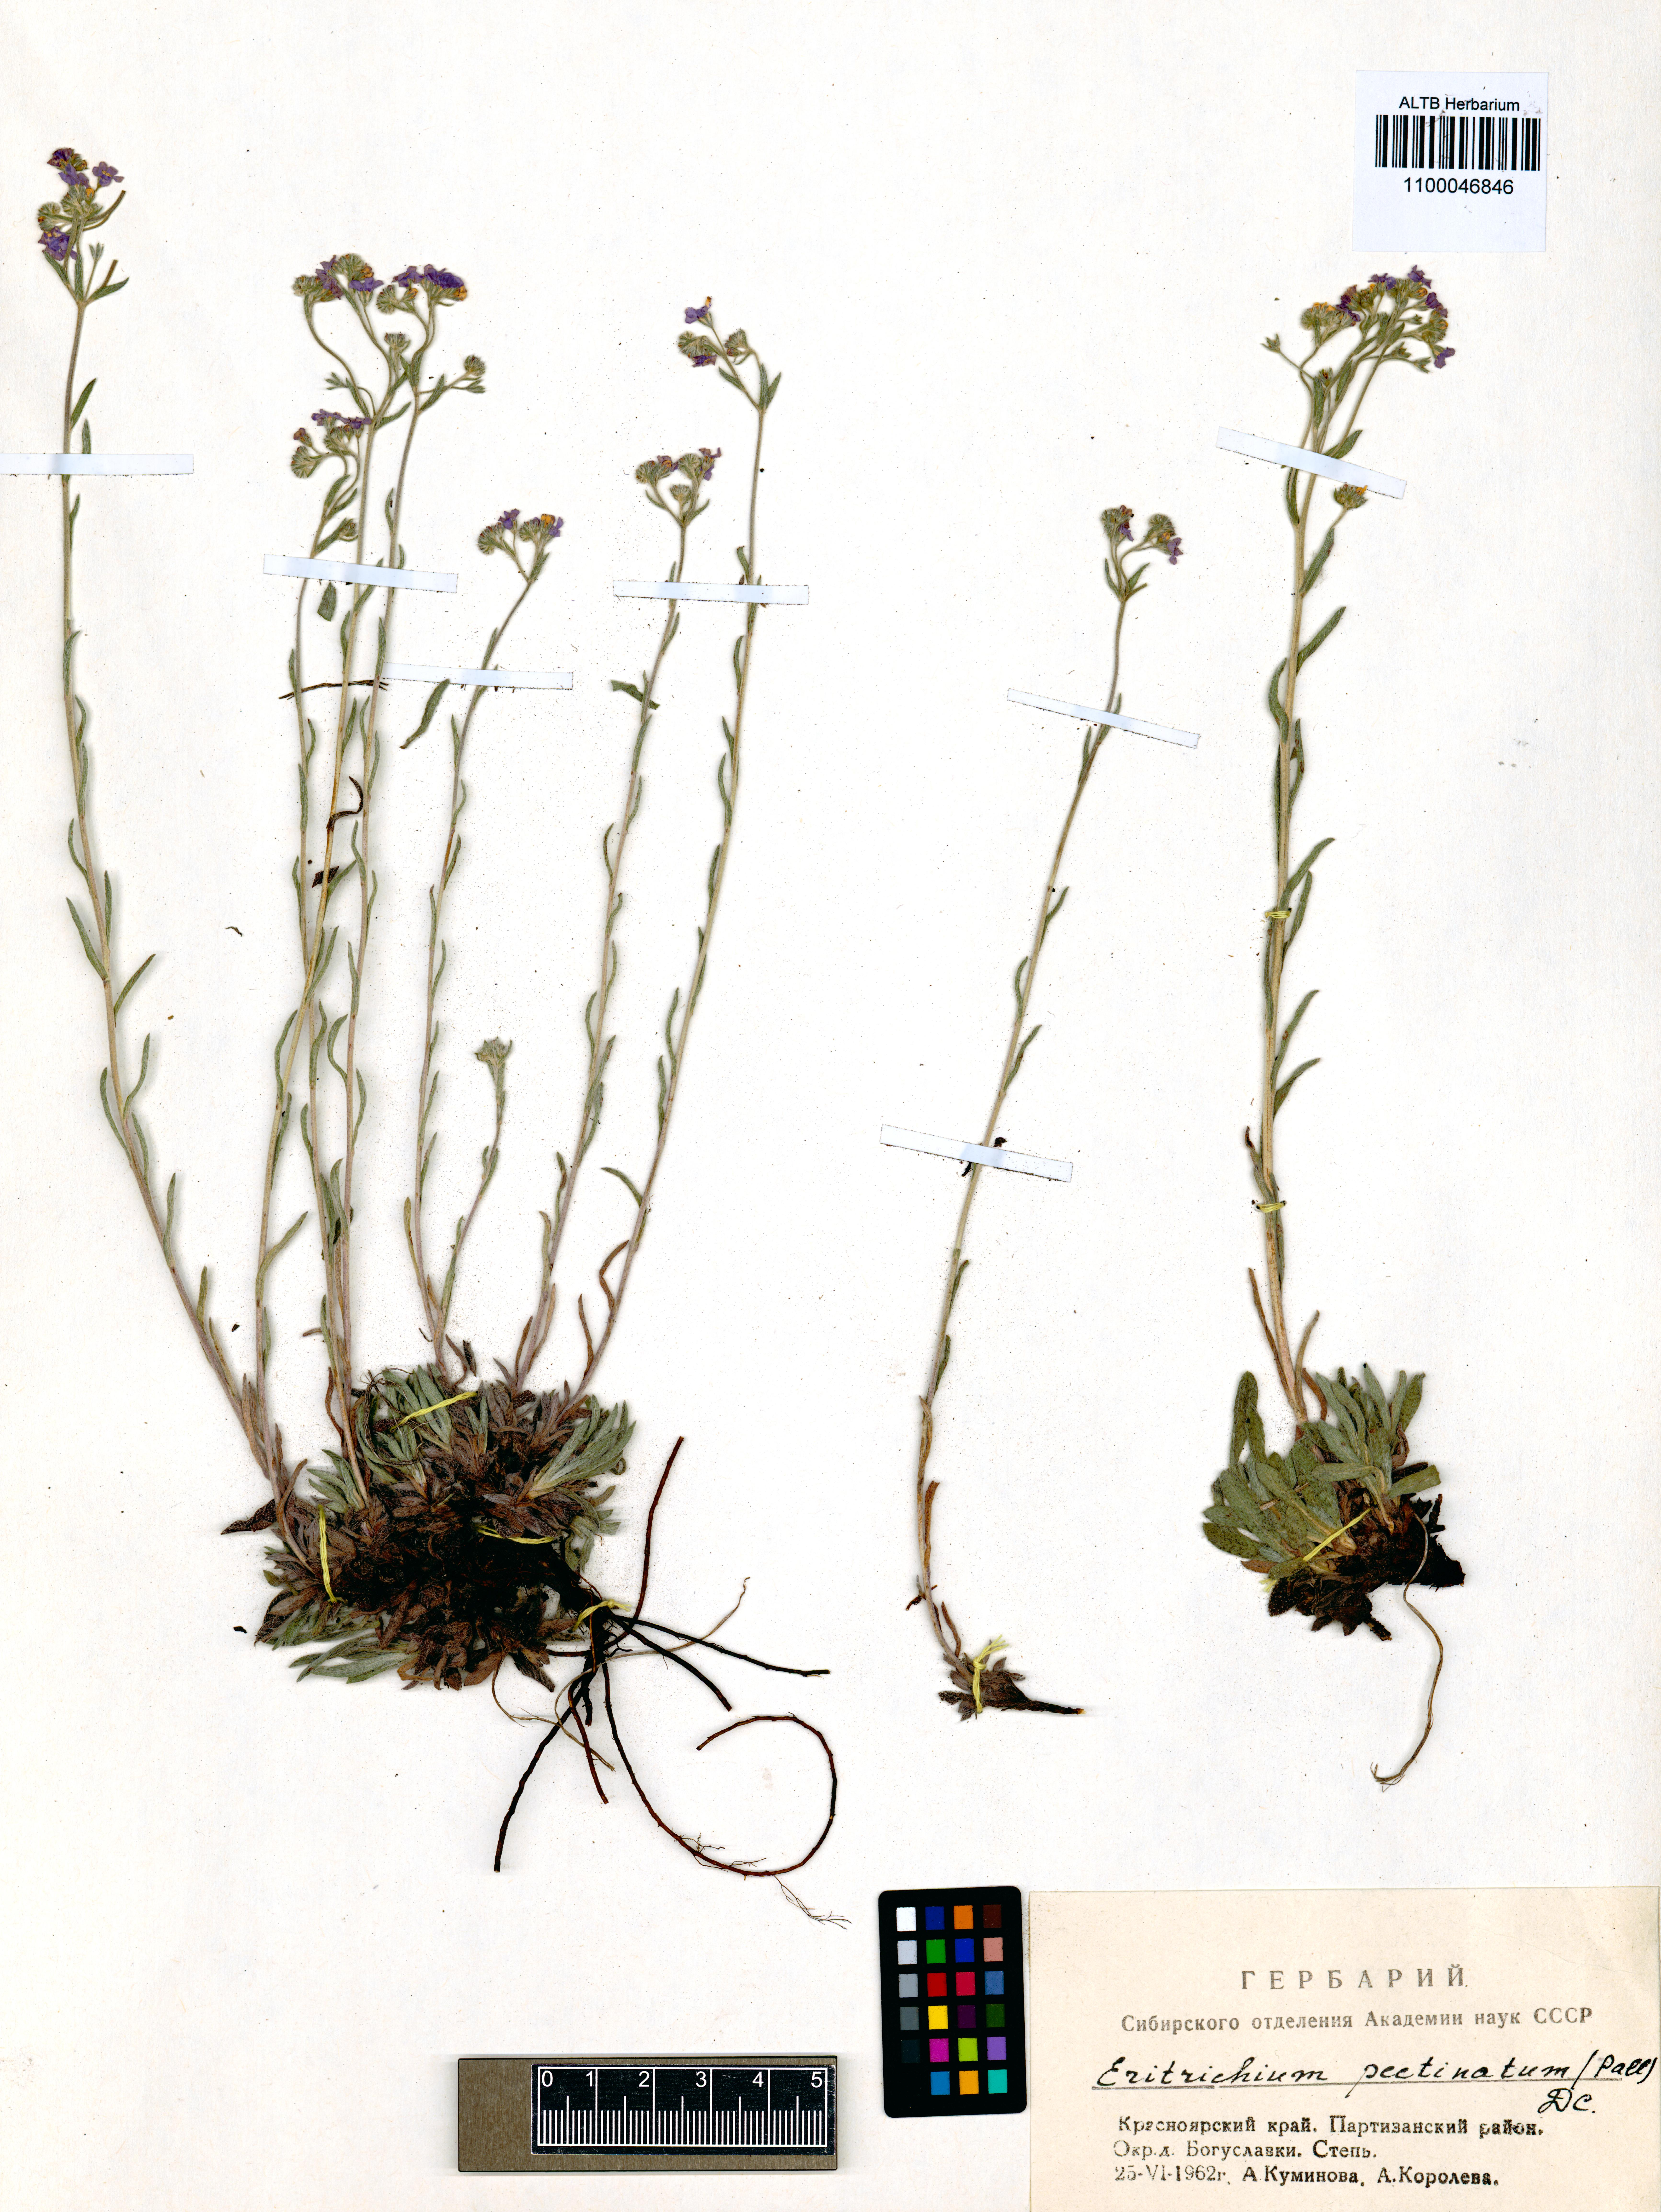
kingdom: Plantae
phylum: Tracheophyta
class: Magnoliopsida
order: Boraginales
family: Boraginaceae
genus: Eritrichium
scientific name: Eritrichium pectinatum
